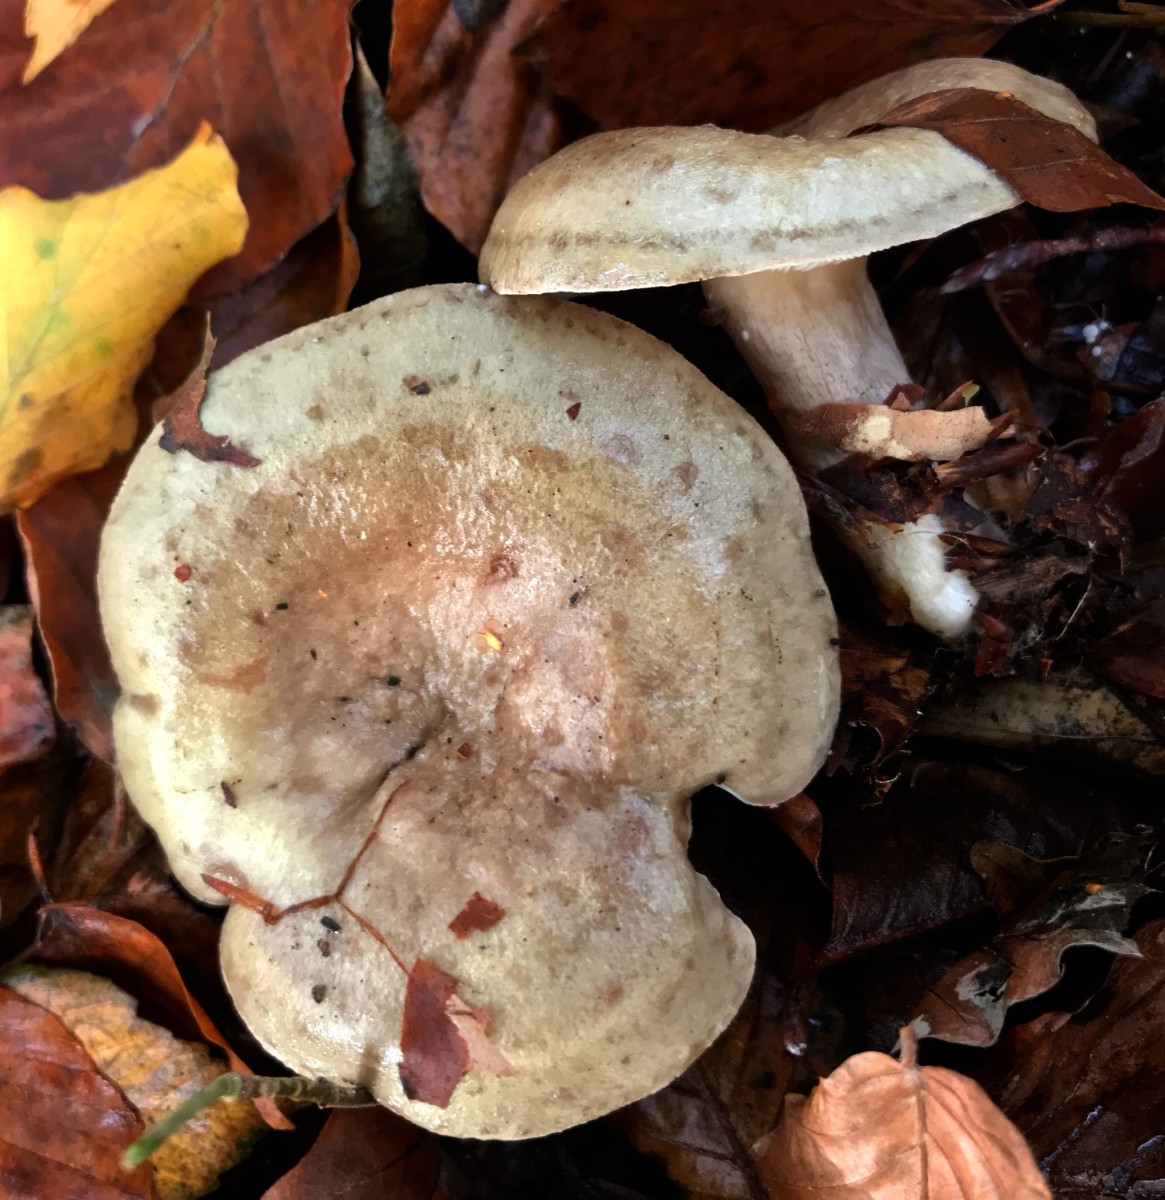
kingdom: Fungi
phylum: Basidiomycota
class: Agaricomycetes
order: Russulales
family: Russulaceae
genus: Lactarius
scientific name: Lactarius blennius
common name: dråbeplettet mælkehat
